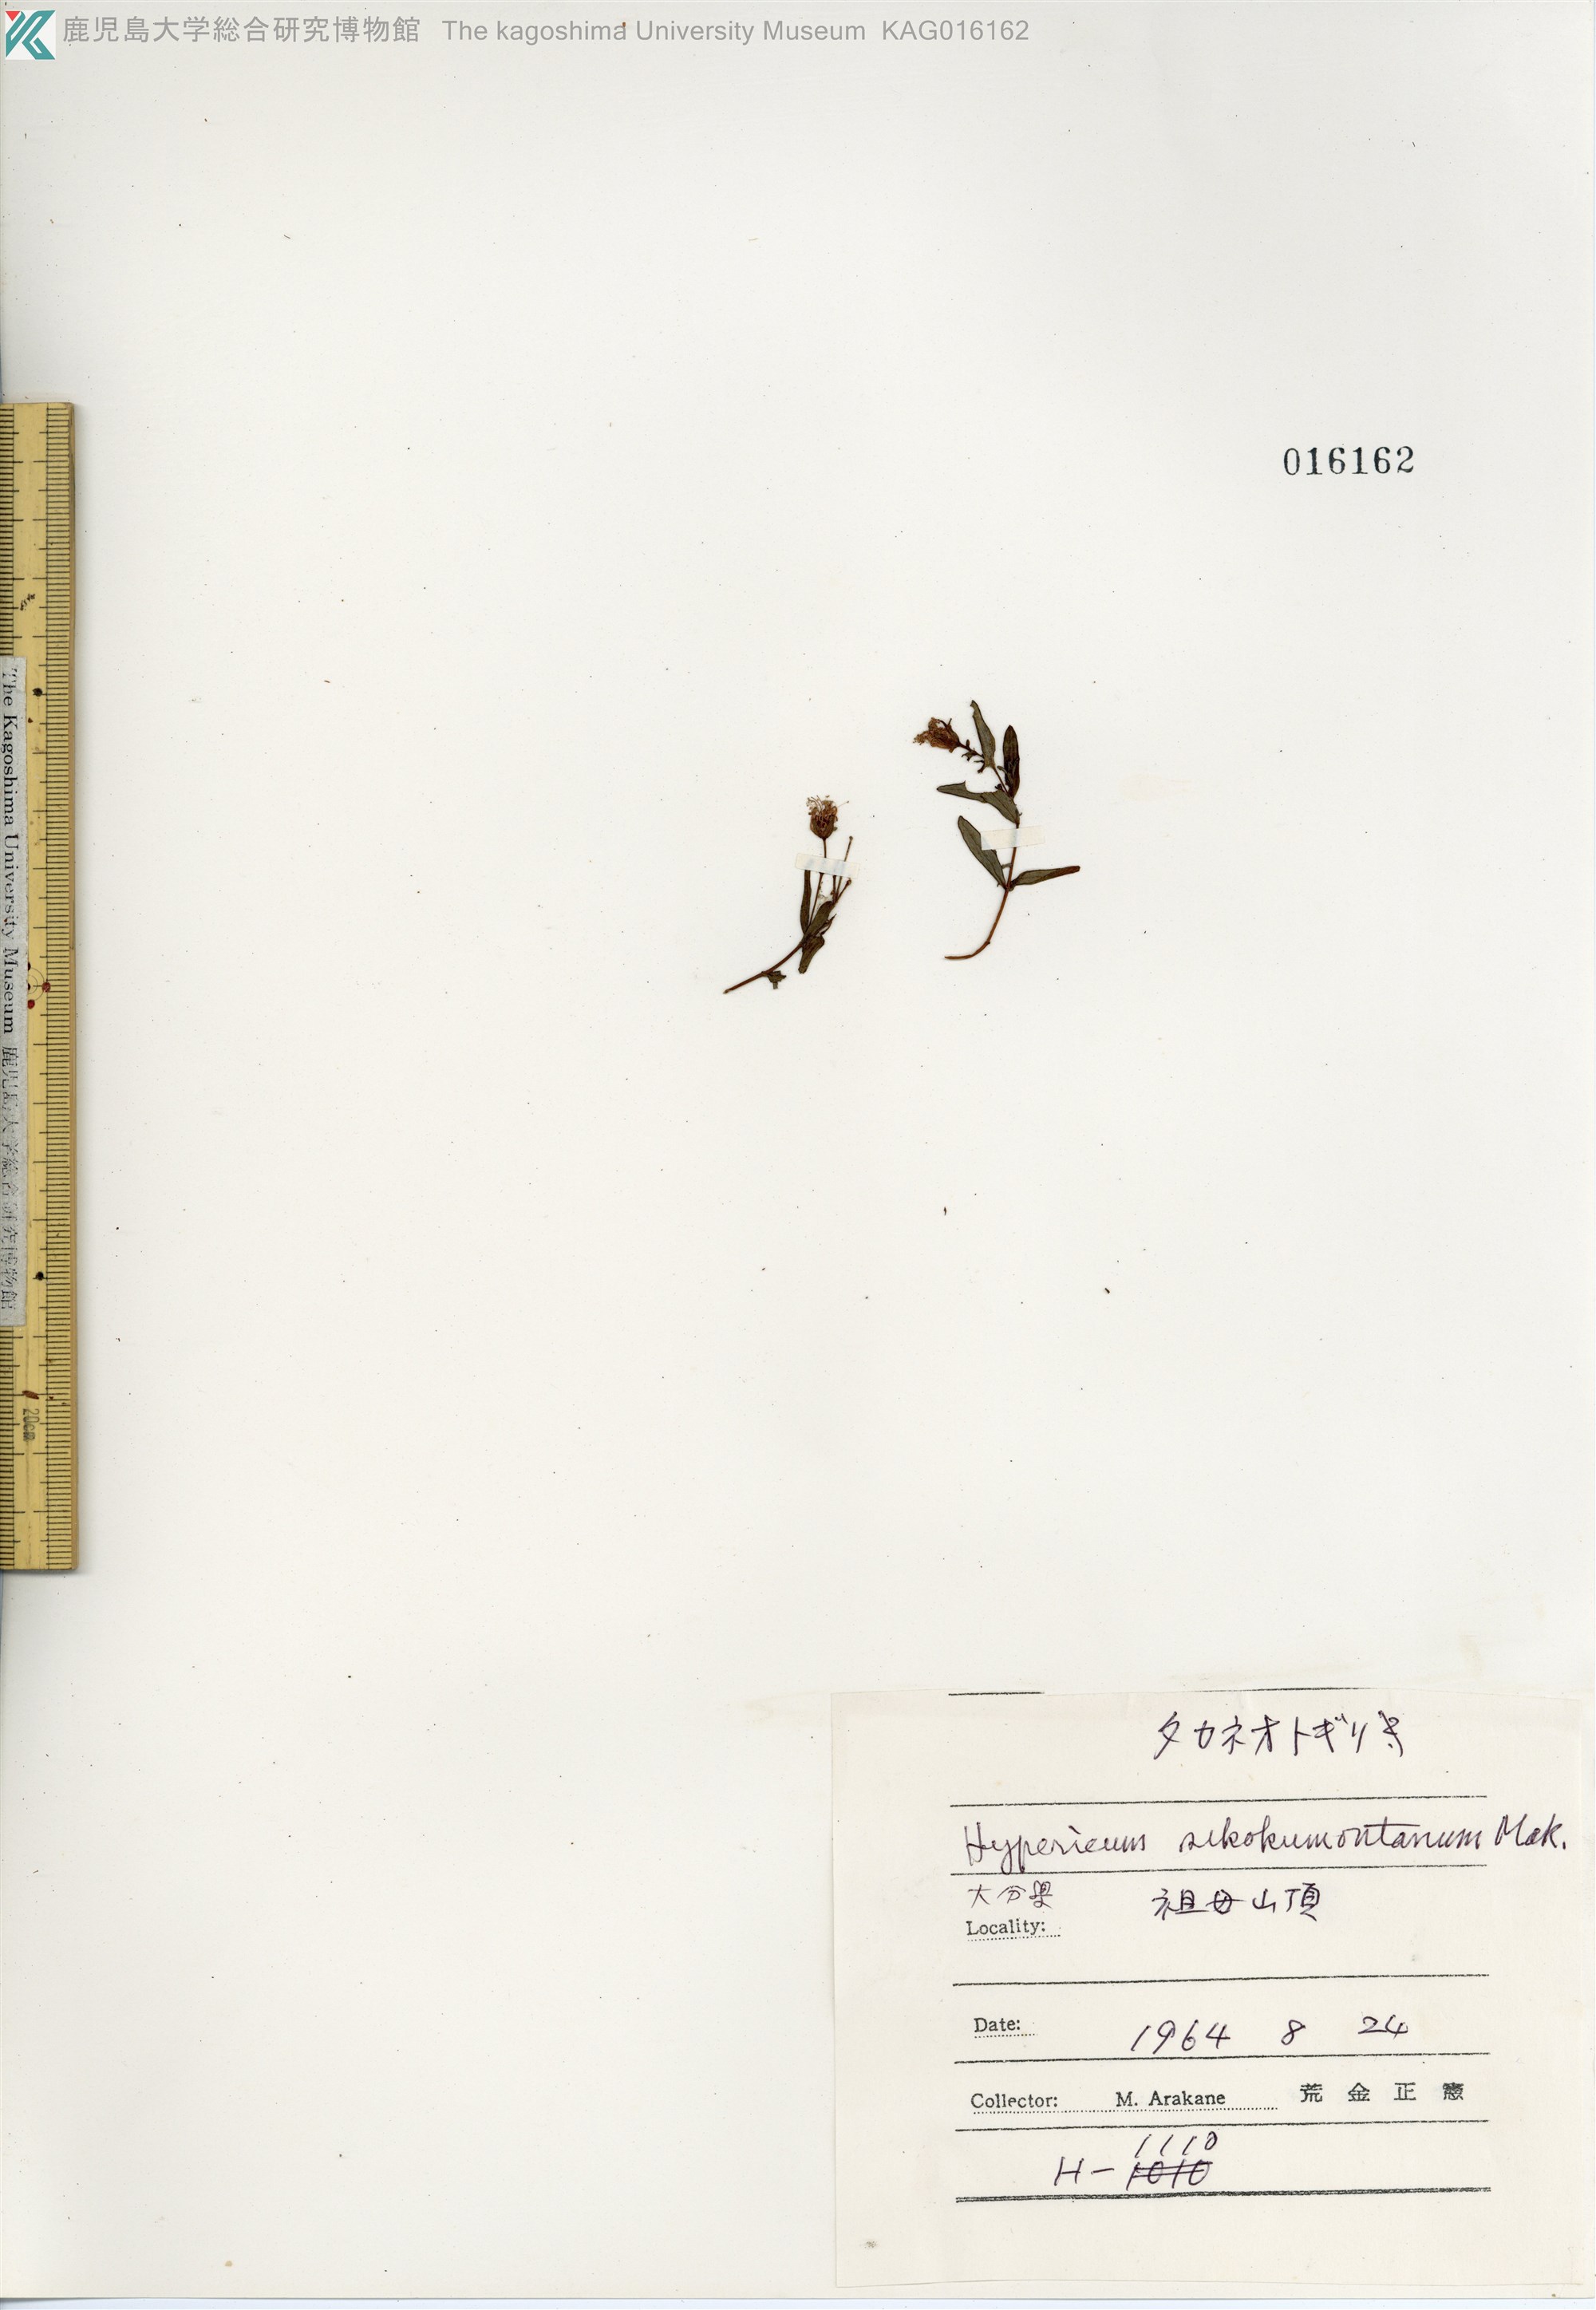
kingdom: Plantae
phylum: Tracheophyta
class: Magnoliopsida
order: Malpighiales
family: Hypericaceae
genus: Hypericum
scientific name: Hypericum sikokumontanum
